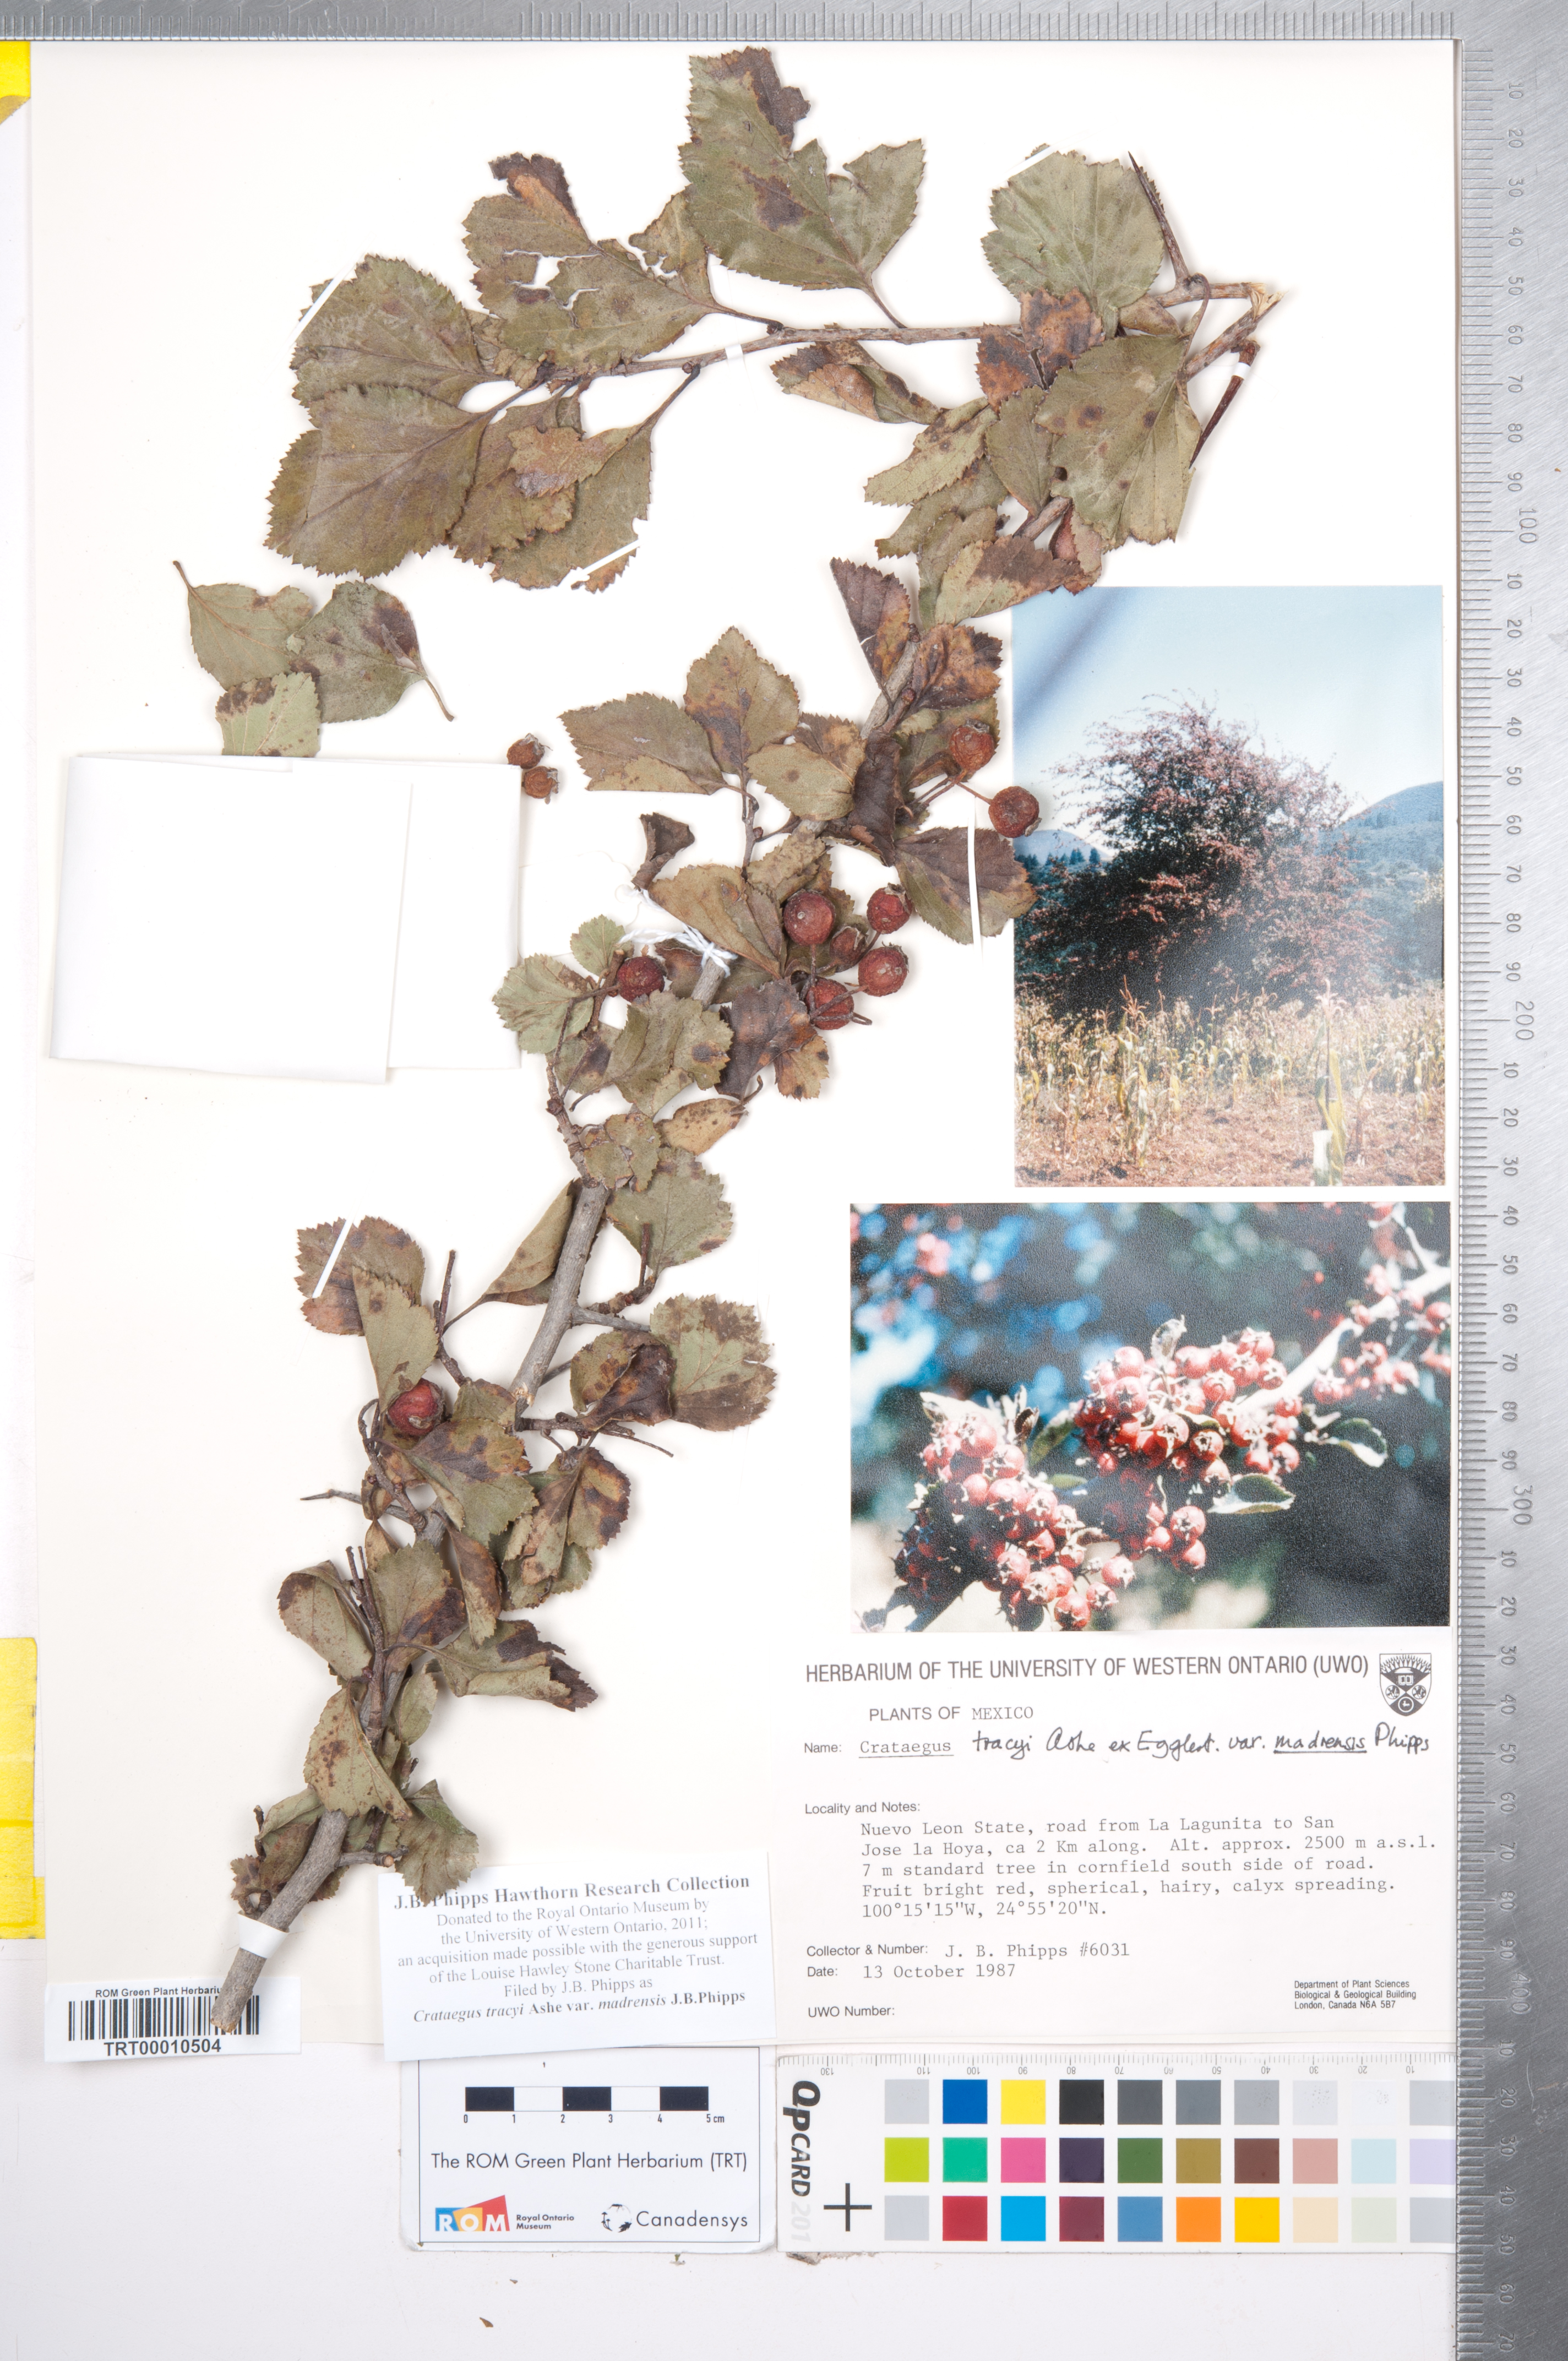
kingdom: Plantae
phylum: Tracheophyta
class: Magnoliopsida
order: Rosales
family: Rosaceae
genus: Crataegus
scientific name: Crataegus tracyi
